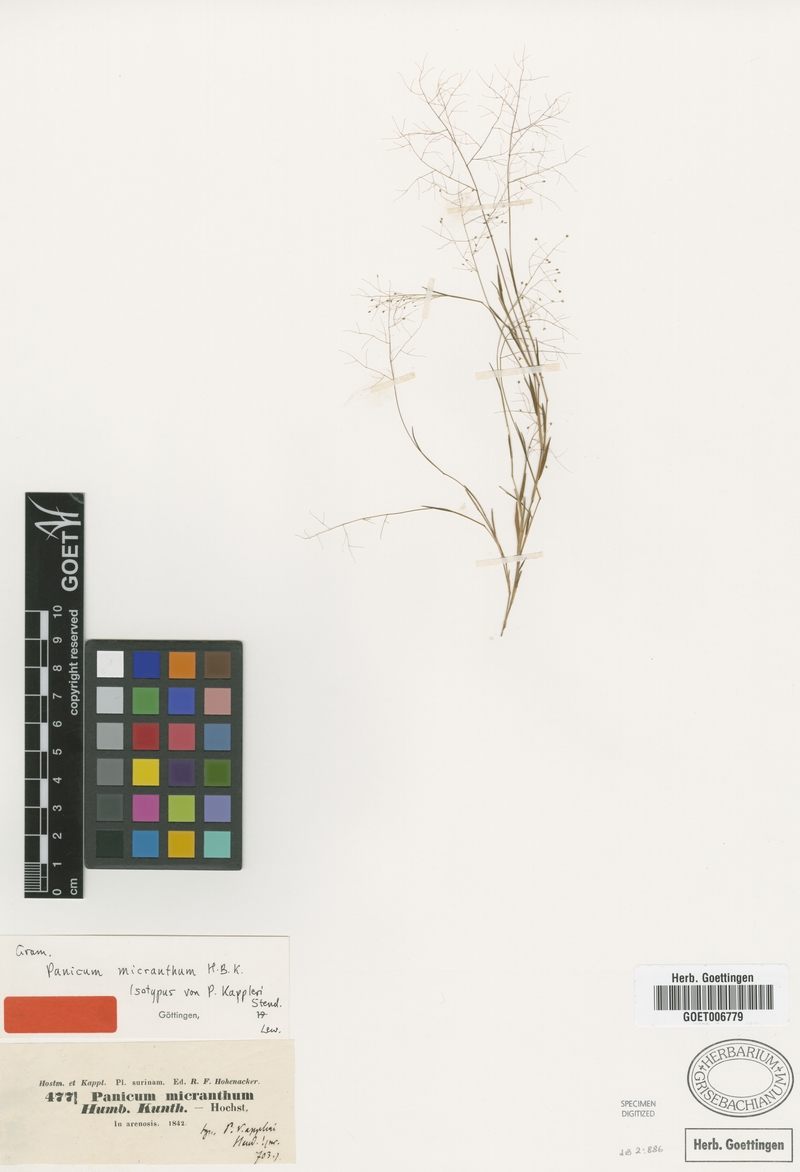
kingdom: Plantae
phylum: Tracheophyta
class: Liliopsida
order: Poales
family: Poaceae
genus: Trichanthecium
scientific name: Trichanthecium micranthum
